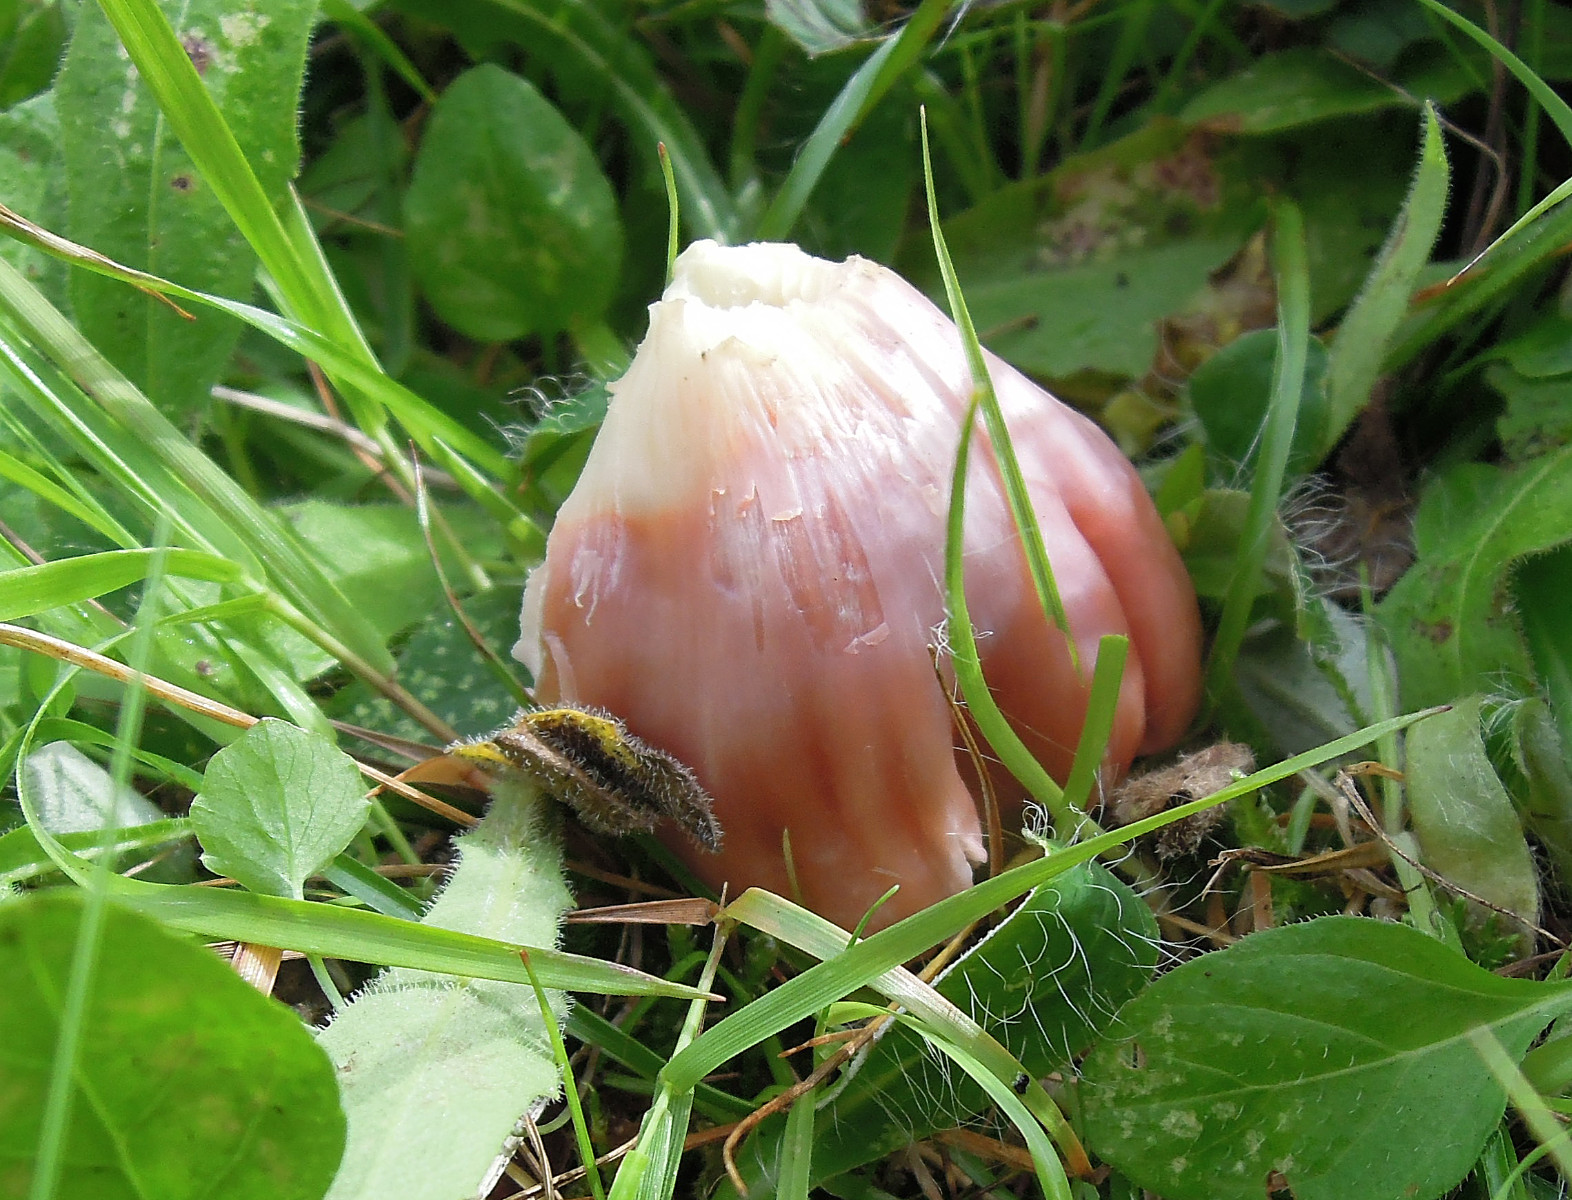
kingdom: Fungi
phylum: Basidiomycota
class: Agaricomycetes
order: Agaricales
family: Hygrophoraceae
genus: Porpolomopsis
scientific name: Porpolomopsis calyptriformis
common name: rosenrød vokshat
